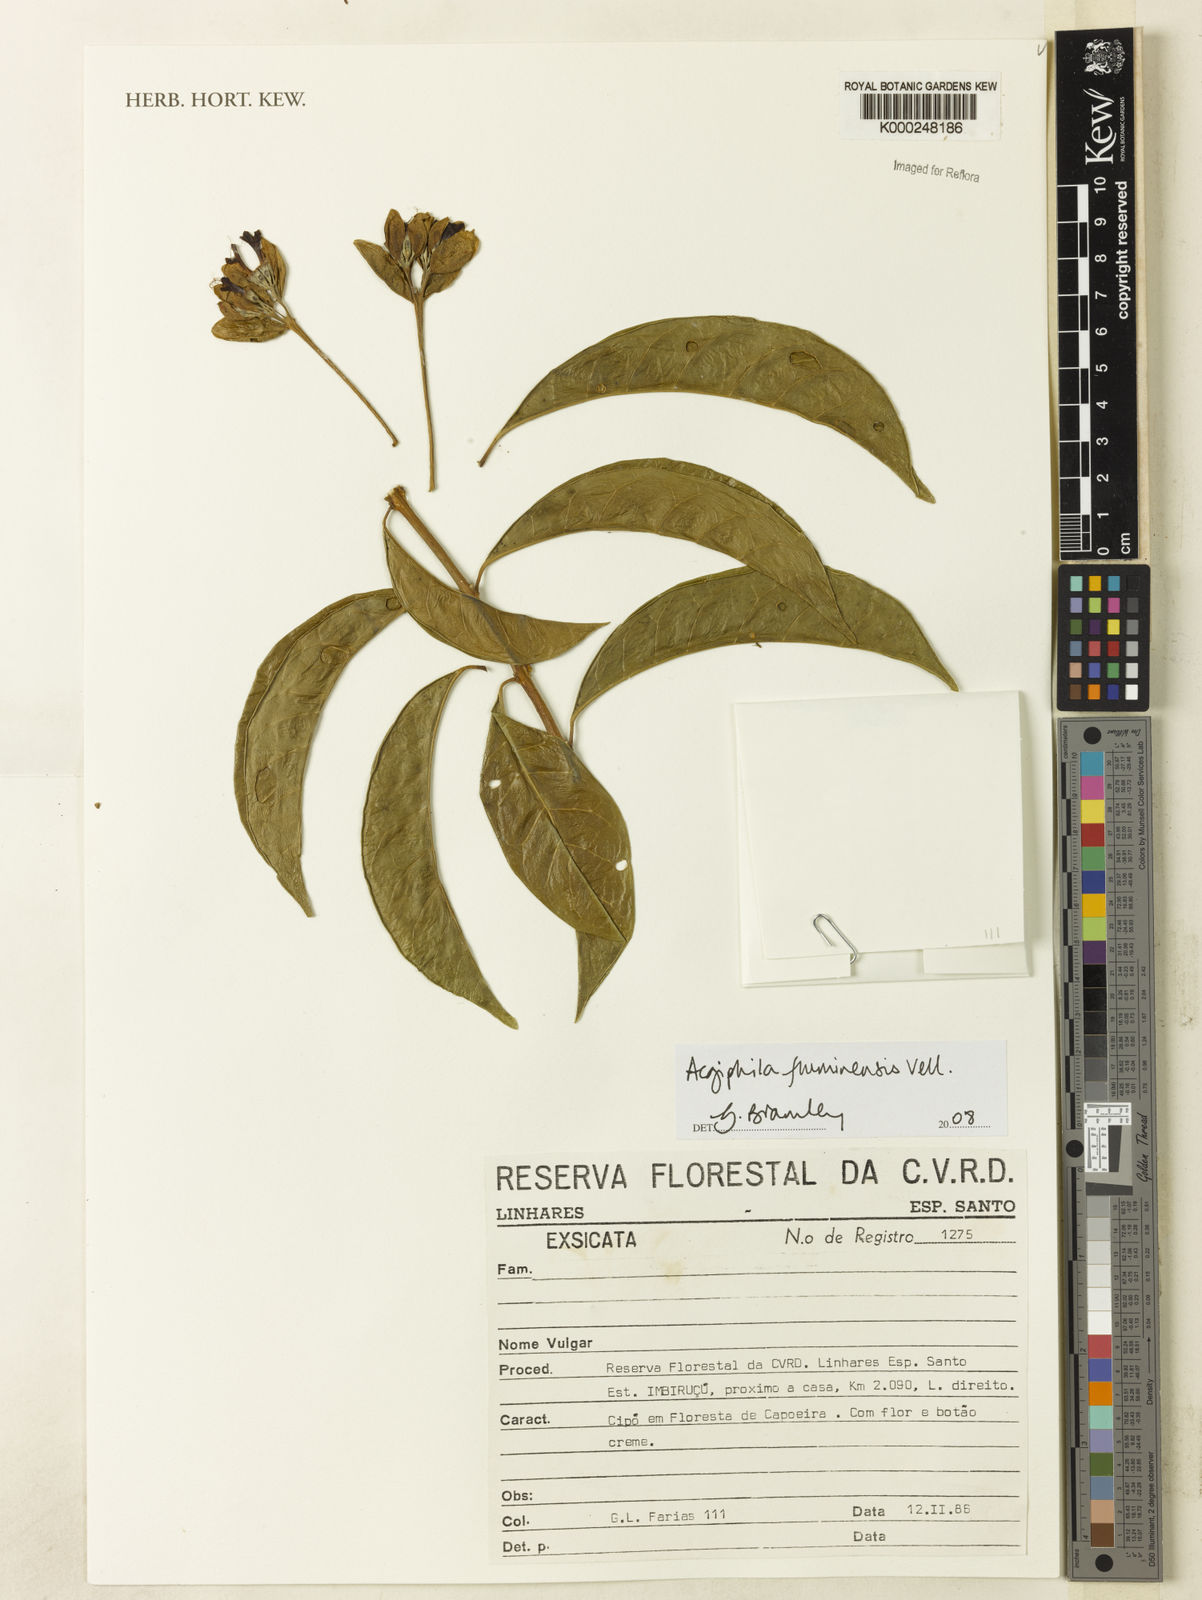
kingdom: Plantae
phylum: Tracheophyta
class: Magnoliopsida
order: Lamiales
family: Lamiaceae
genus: Aegiphila
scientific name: Aegiphila fluminensis
